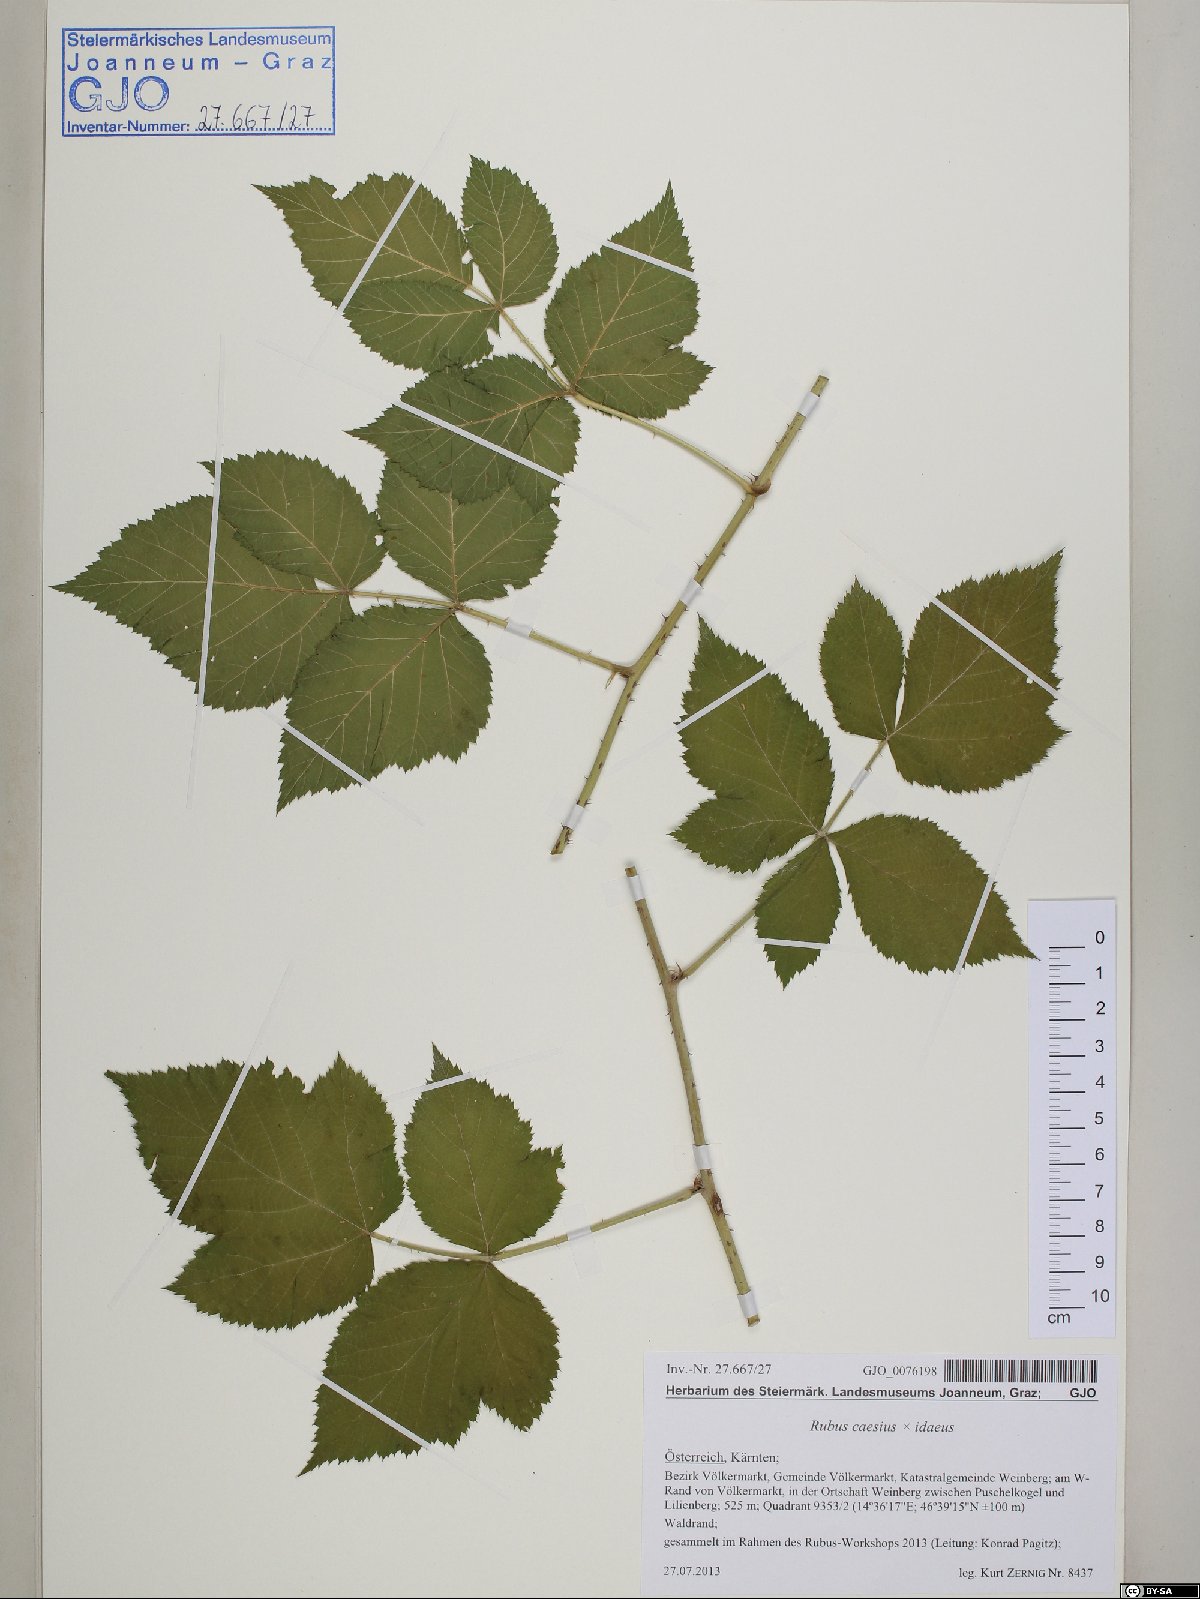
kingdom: Plantae
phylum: Tracheophyta
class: Magnoliopsida
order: Rosales
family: Rosaceae
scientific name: Rosaceae
